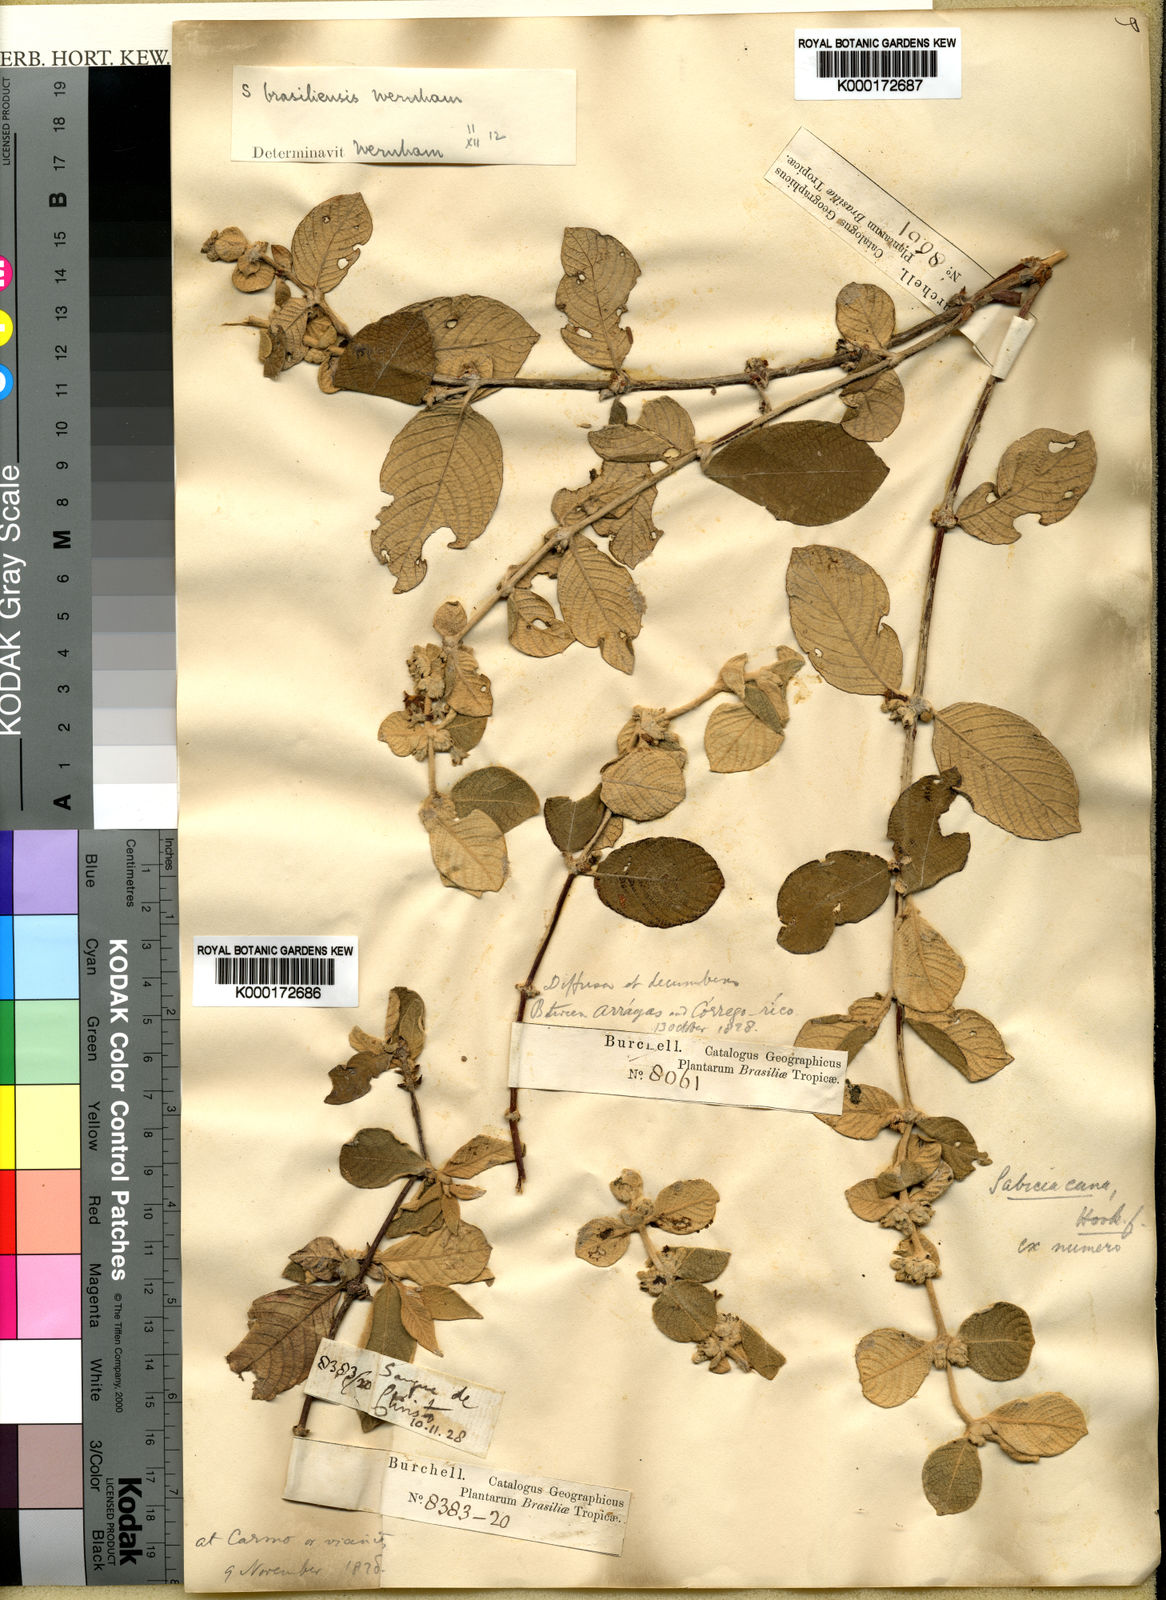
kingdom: Plantae
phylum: Tracheophyta
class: Magnoliopsida
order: Gentianales
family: Rubiaceae
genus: Sabicea
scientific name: Sabicea brasiliensis
